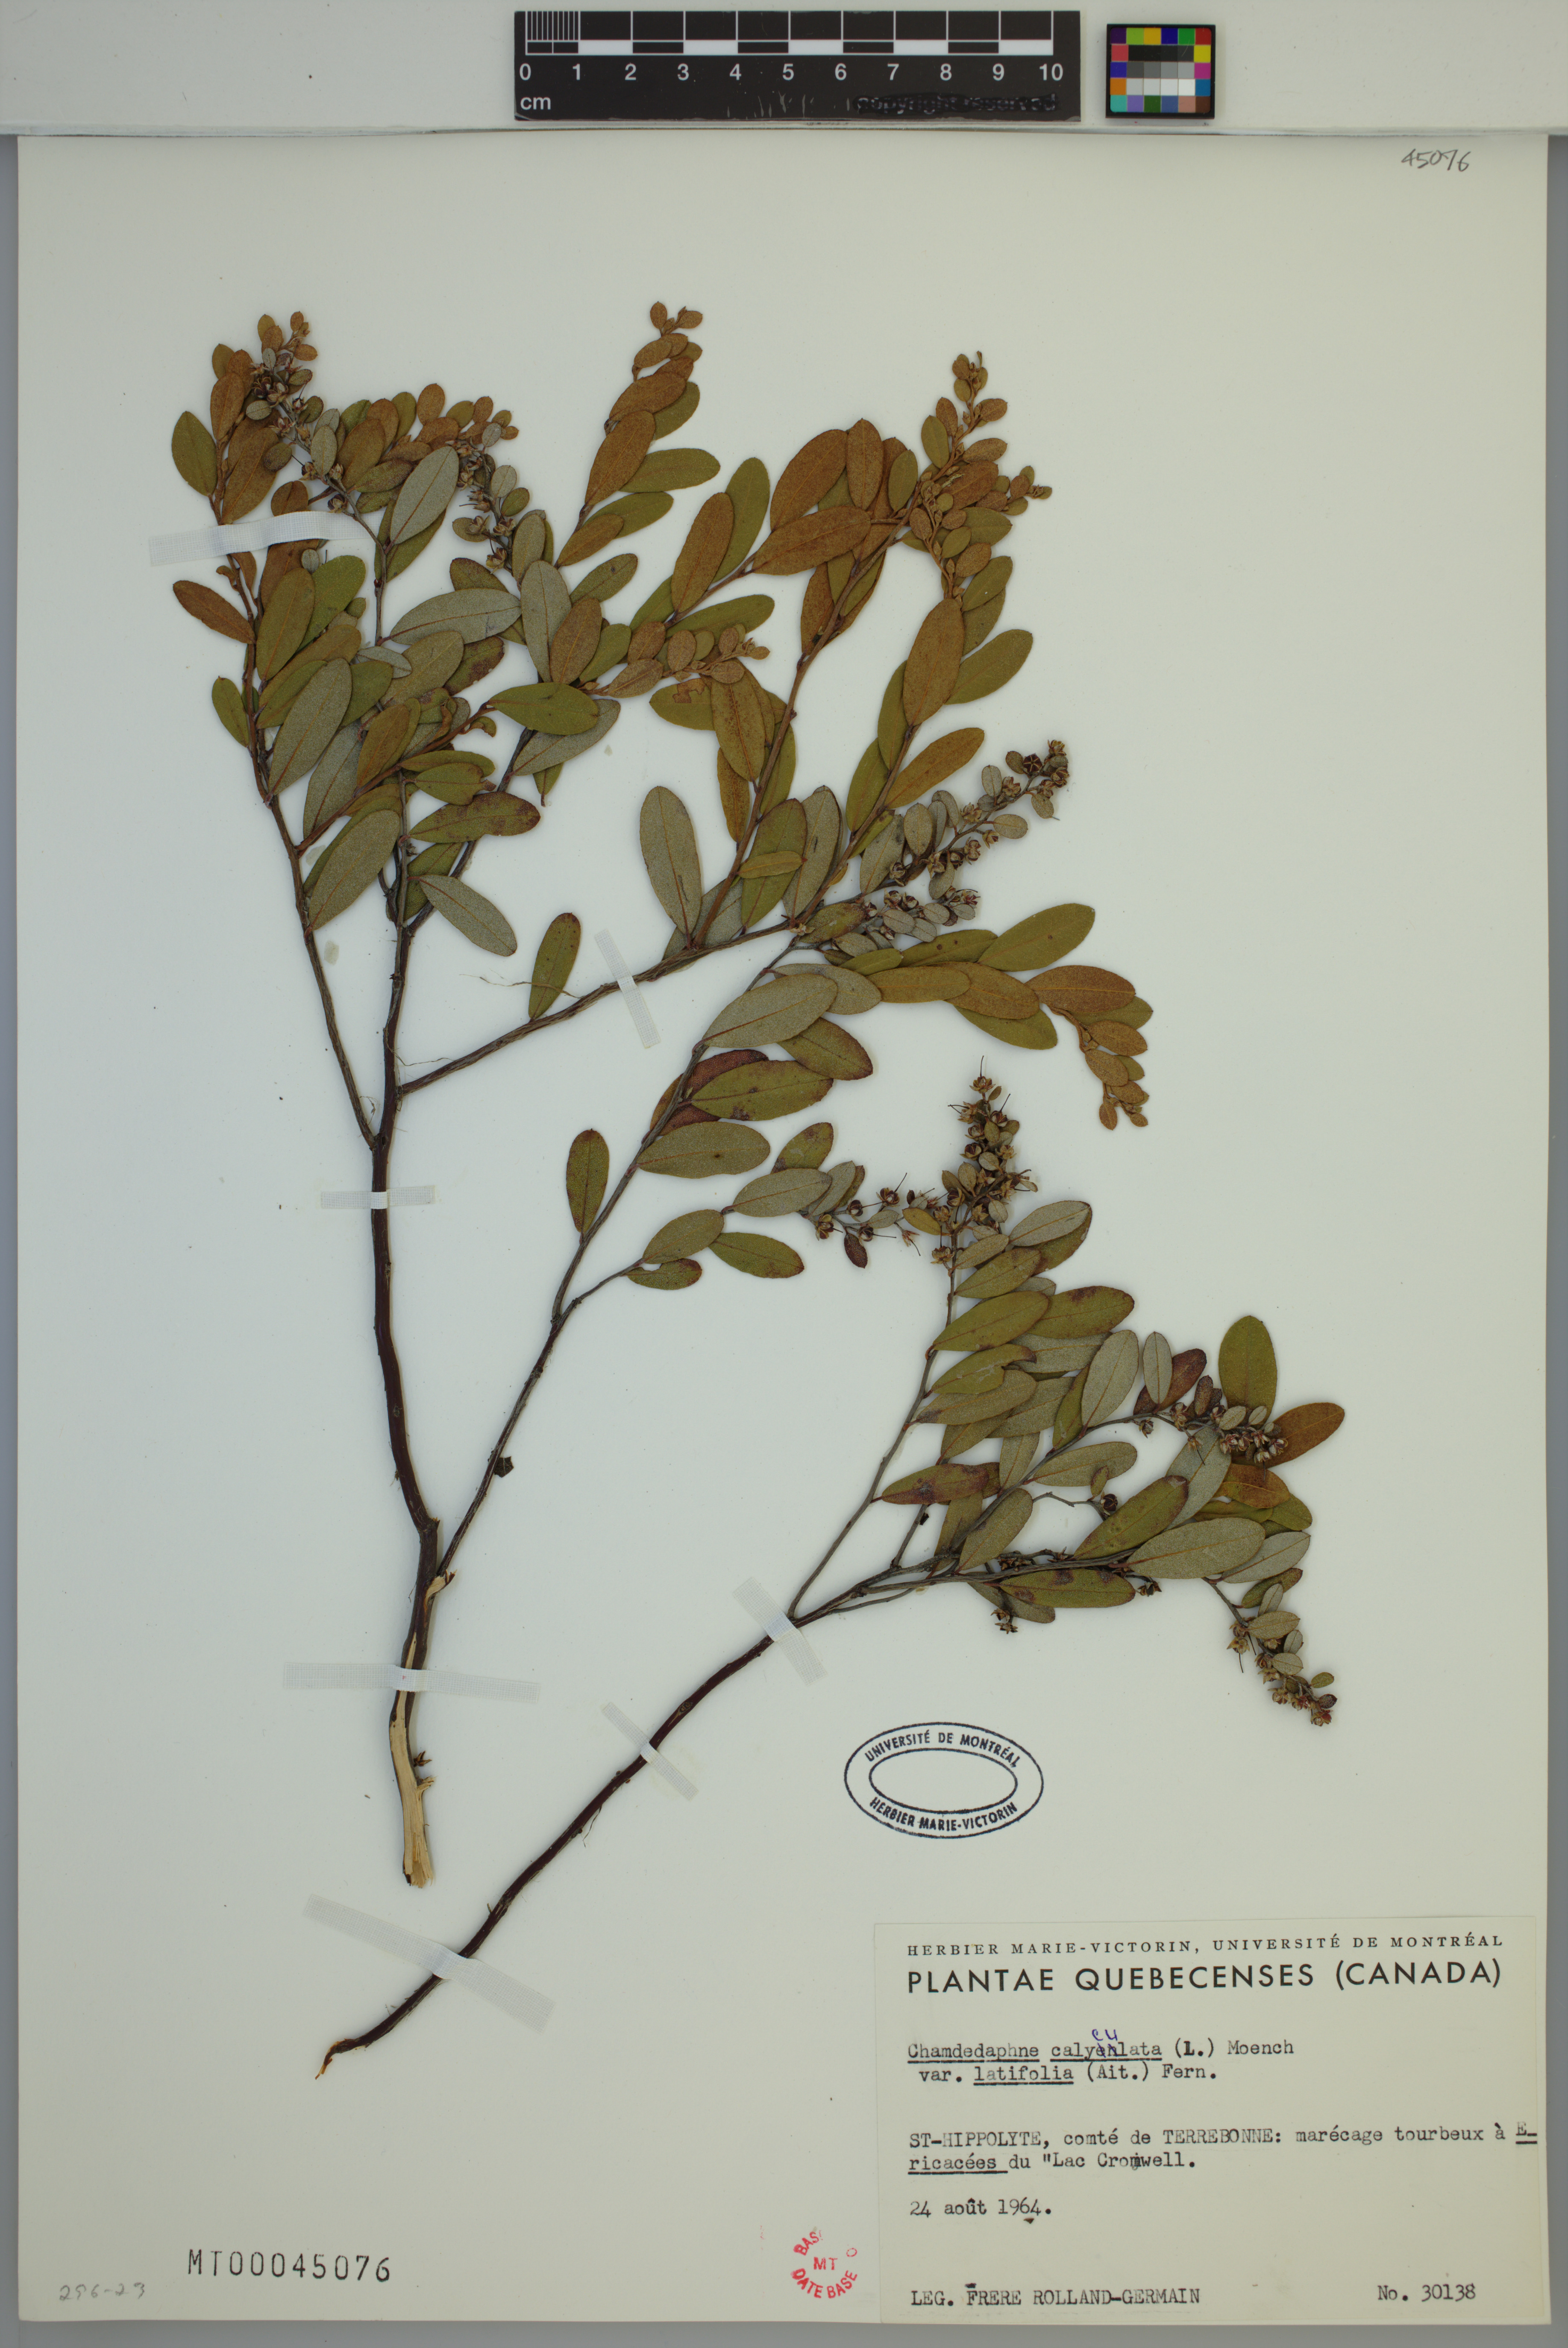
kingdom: Plantae
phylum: Tracheophyta
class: Magnoliopsida
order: Ericales
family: Ericaceae
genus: Chamaedaphne
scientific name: Chamaedaphne calyculata
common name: Leatherleaf
